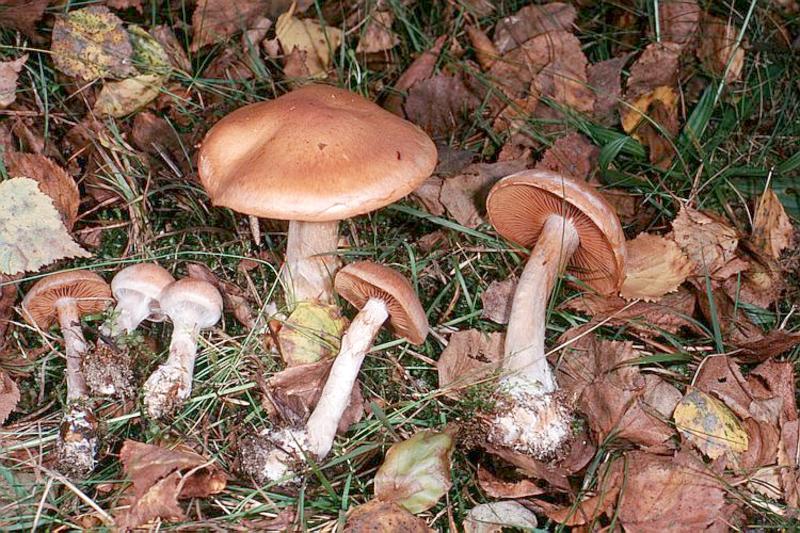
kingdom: Fungi
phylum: Basidiomycota
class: Agaricomycetes
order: Agaricales
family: Cortinariaceae
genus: Cortinarius
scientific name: Cortinarius armillatus
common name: Red banded webcap
